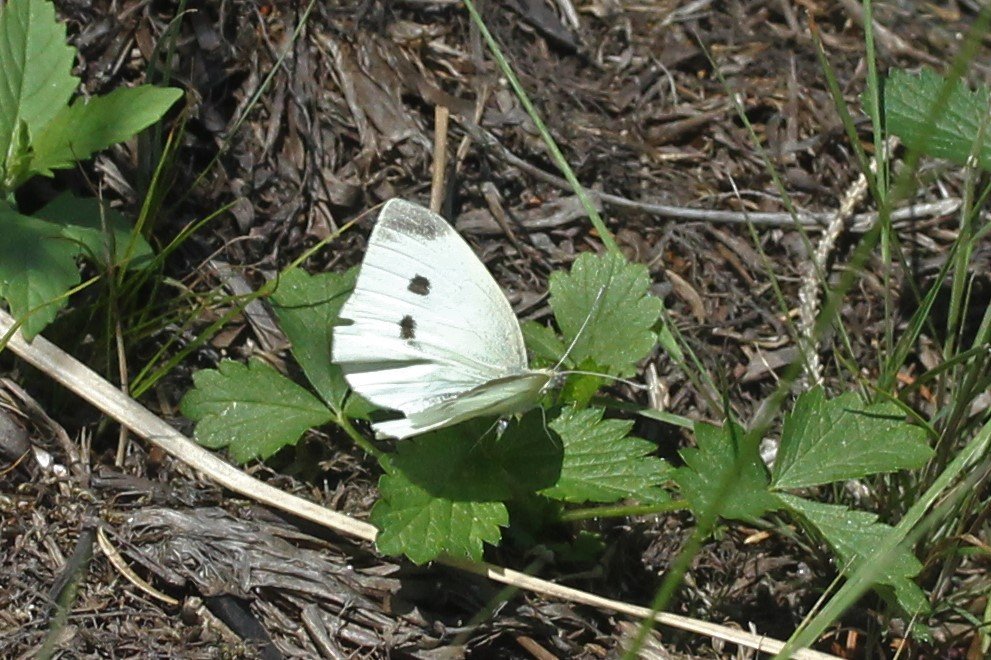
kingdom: Animalia
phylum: Arthropoda
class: Insecta
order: Lepidoptera
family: Pieridae
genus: Pieris
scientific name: Pieris rapae
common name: Cabbage White
